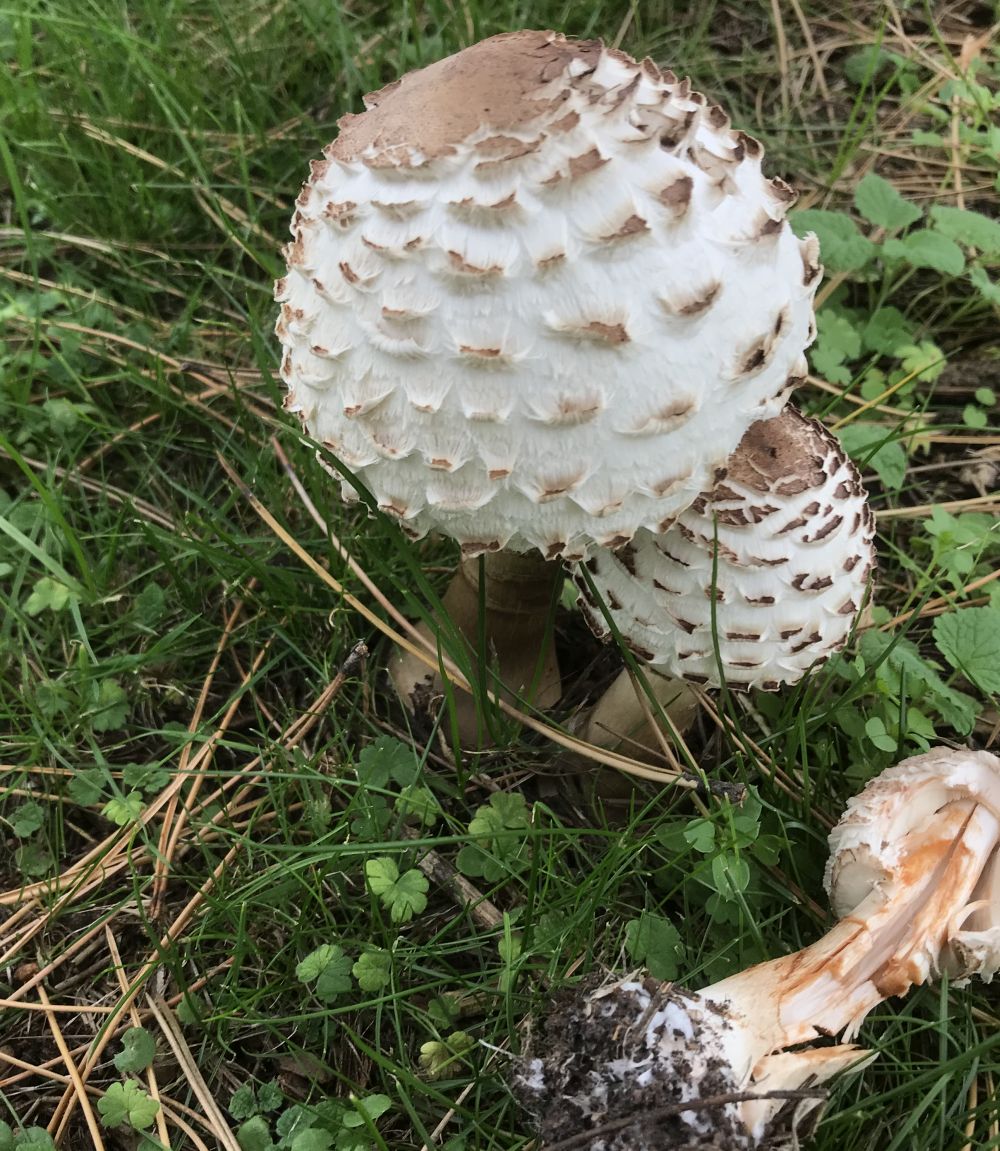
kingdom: Fungi
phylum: Basidiomycota
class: Agaricomycetes
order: Agaricales
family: Agaricaceae
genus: Chlorophyllum
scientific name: Chlorophyllum rhacodes
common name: ægte rabarberhat
